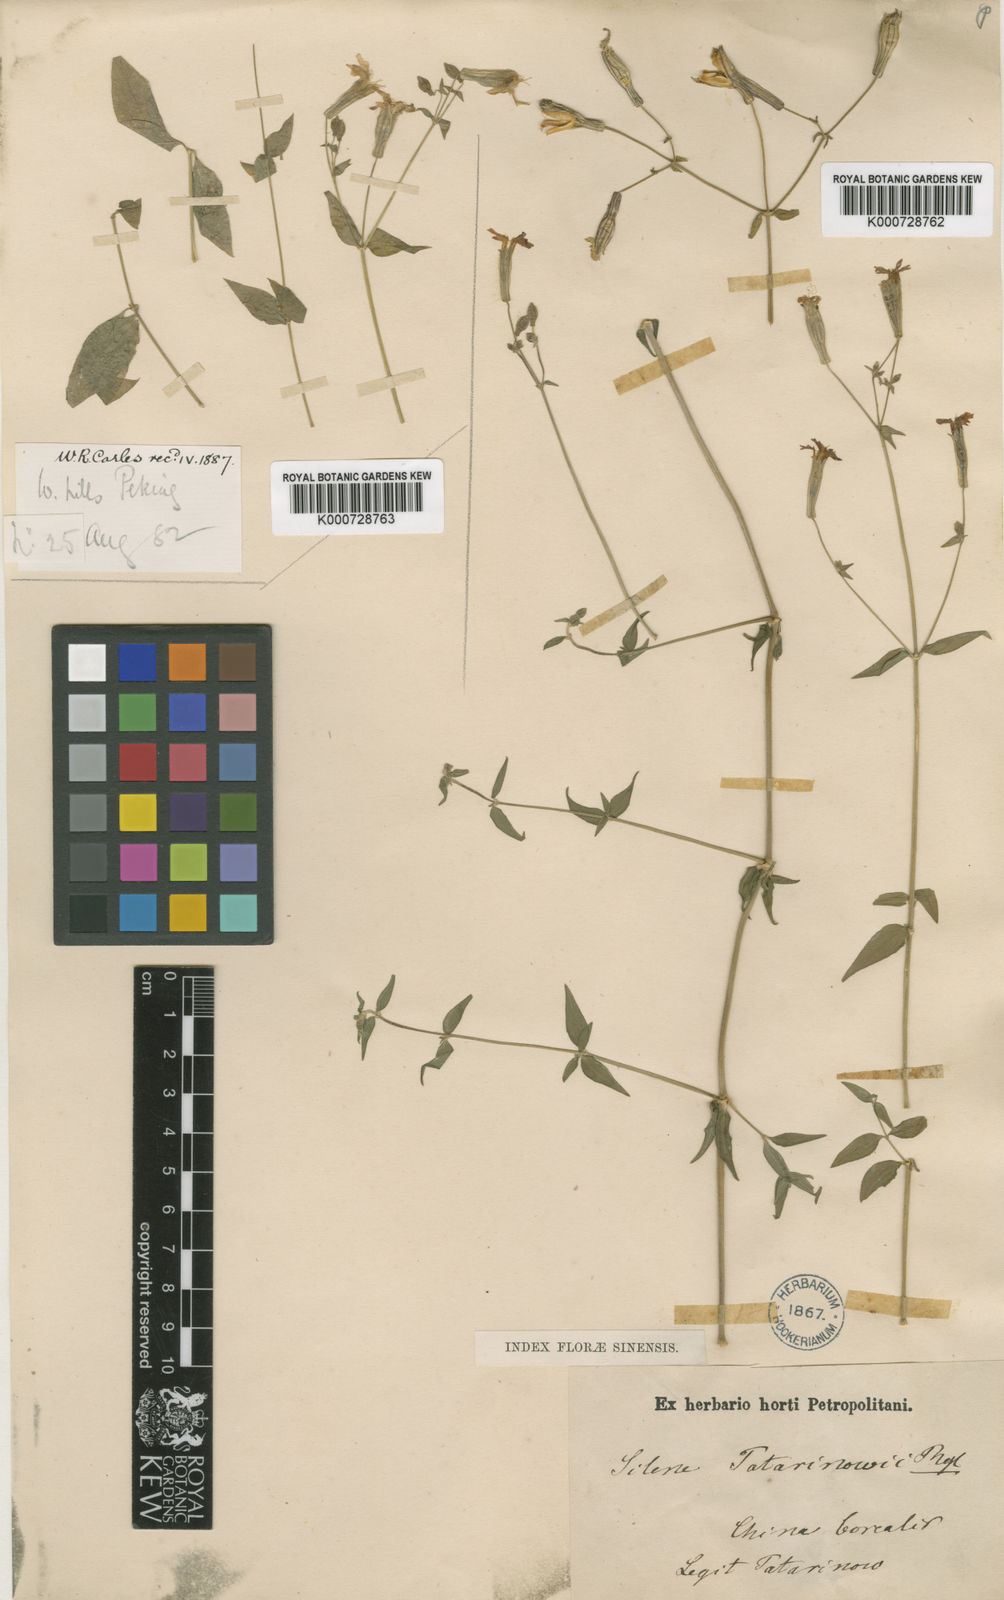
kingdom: Plantae
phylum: Tracheophyta
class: Magnoliopsida
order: Caryophyllales
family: Caryophyllaceae
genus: Silene
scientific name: Silene tatarinowii
